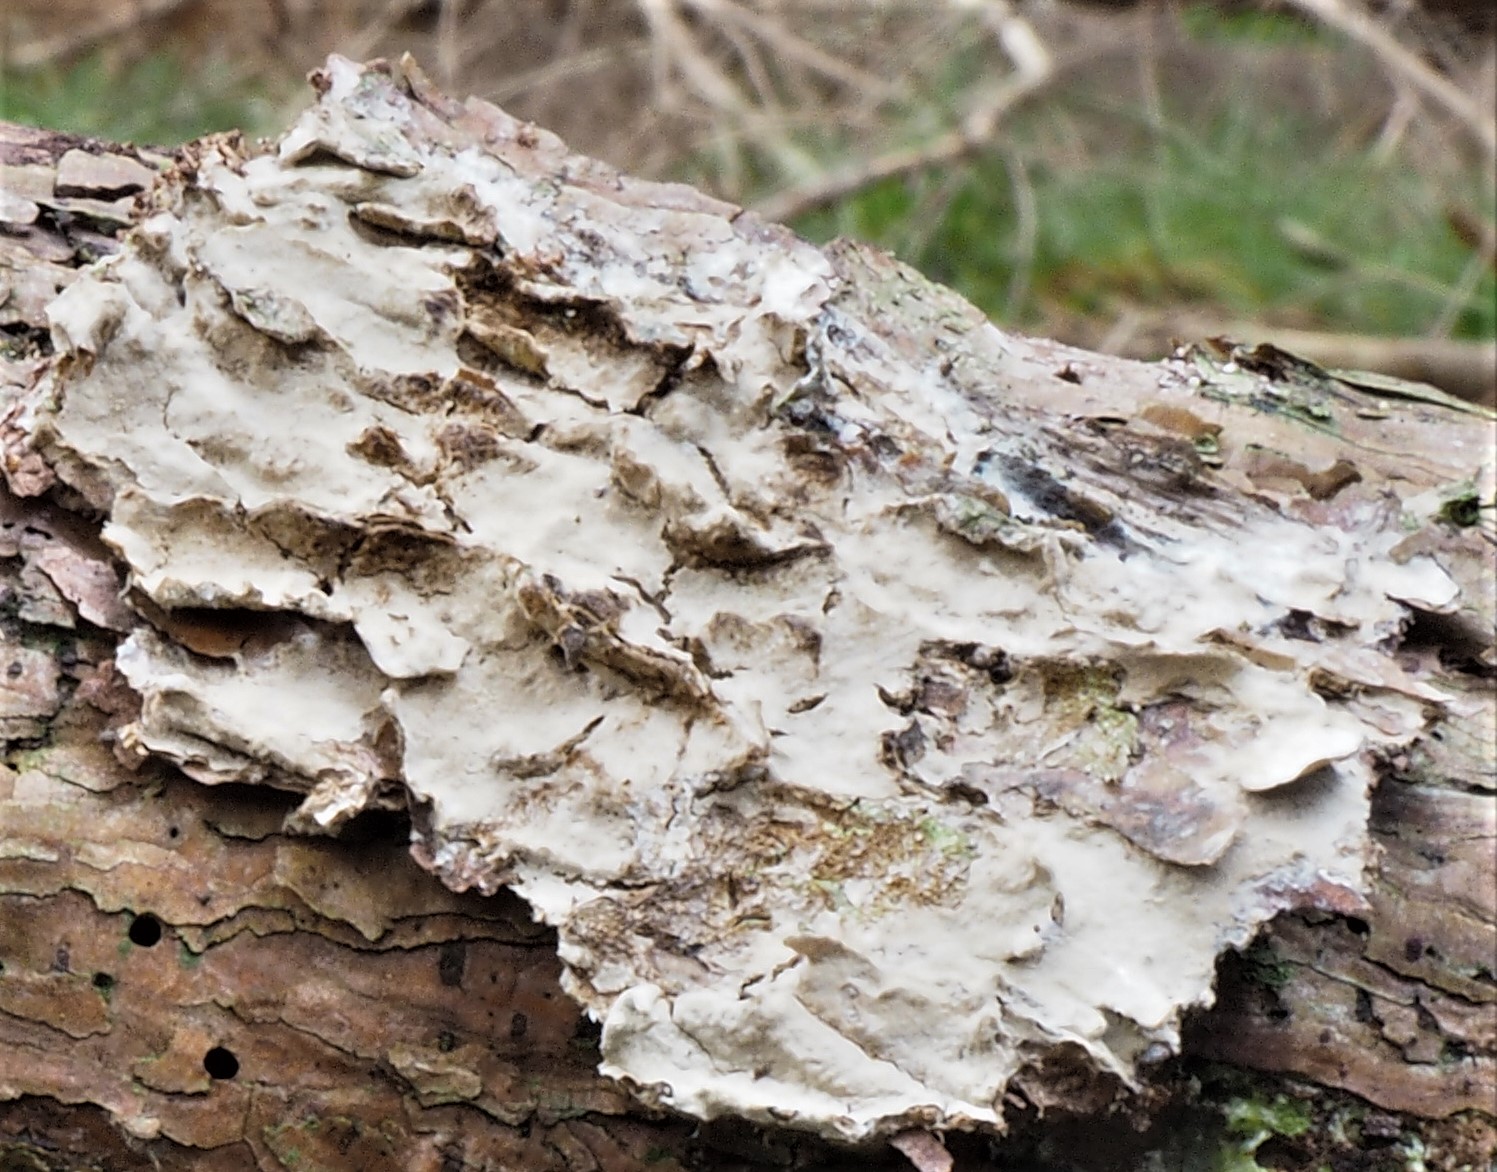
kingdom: Fungi
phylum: Basidiomycota
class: Agaricomycetes
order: Corticiales
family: Corticiaceae
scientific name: Corticiaceae
